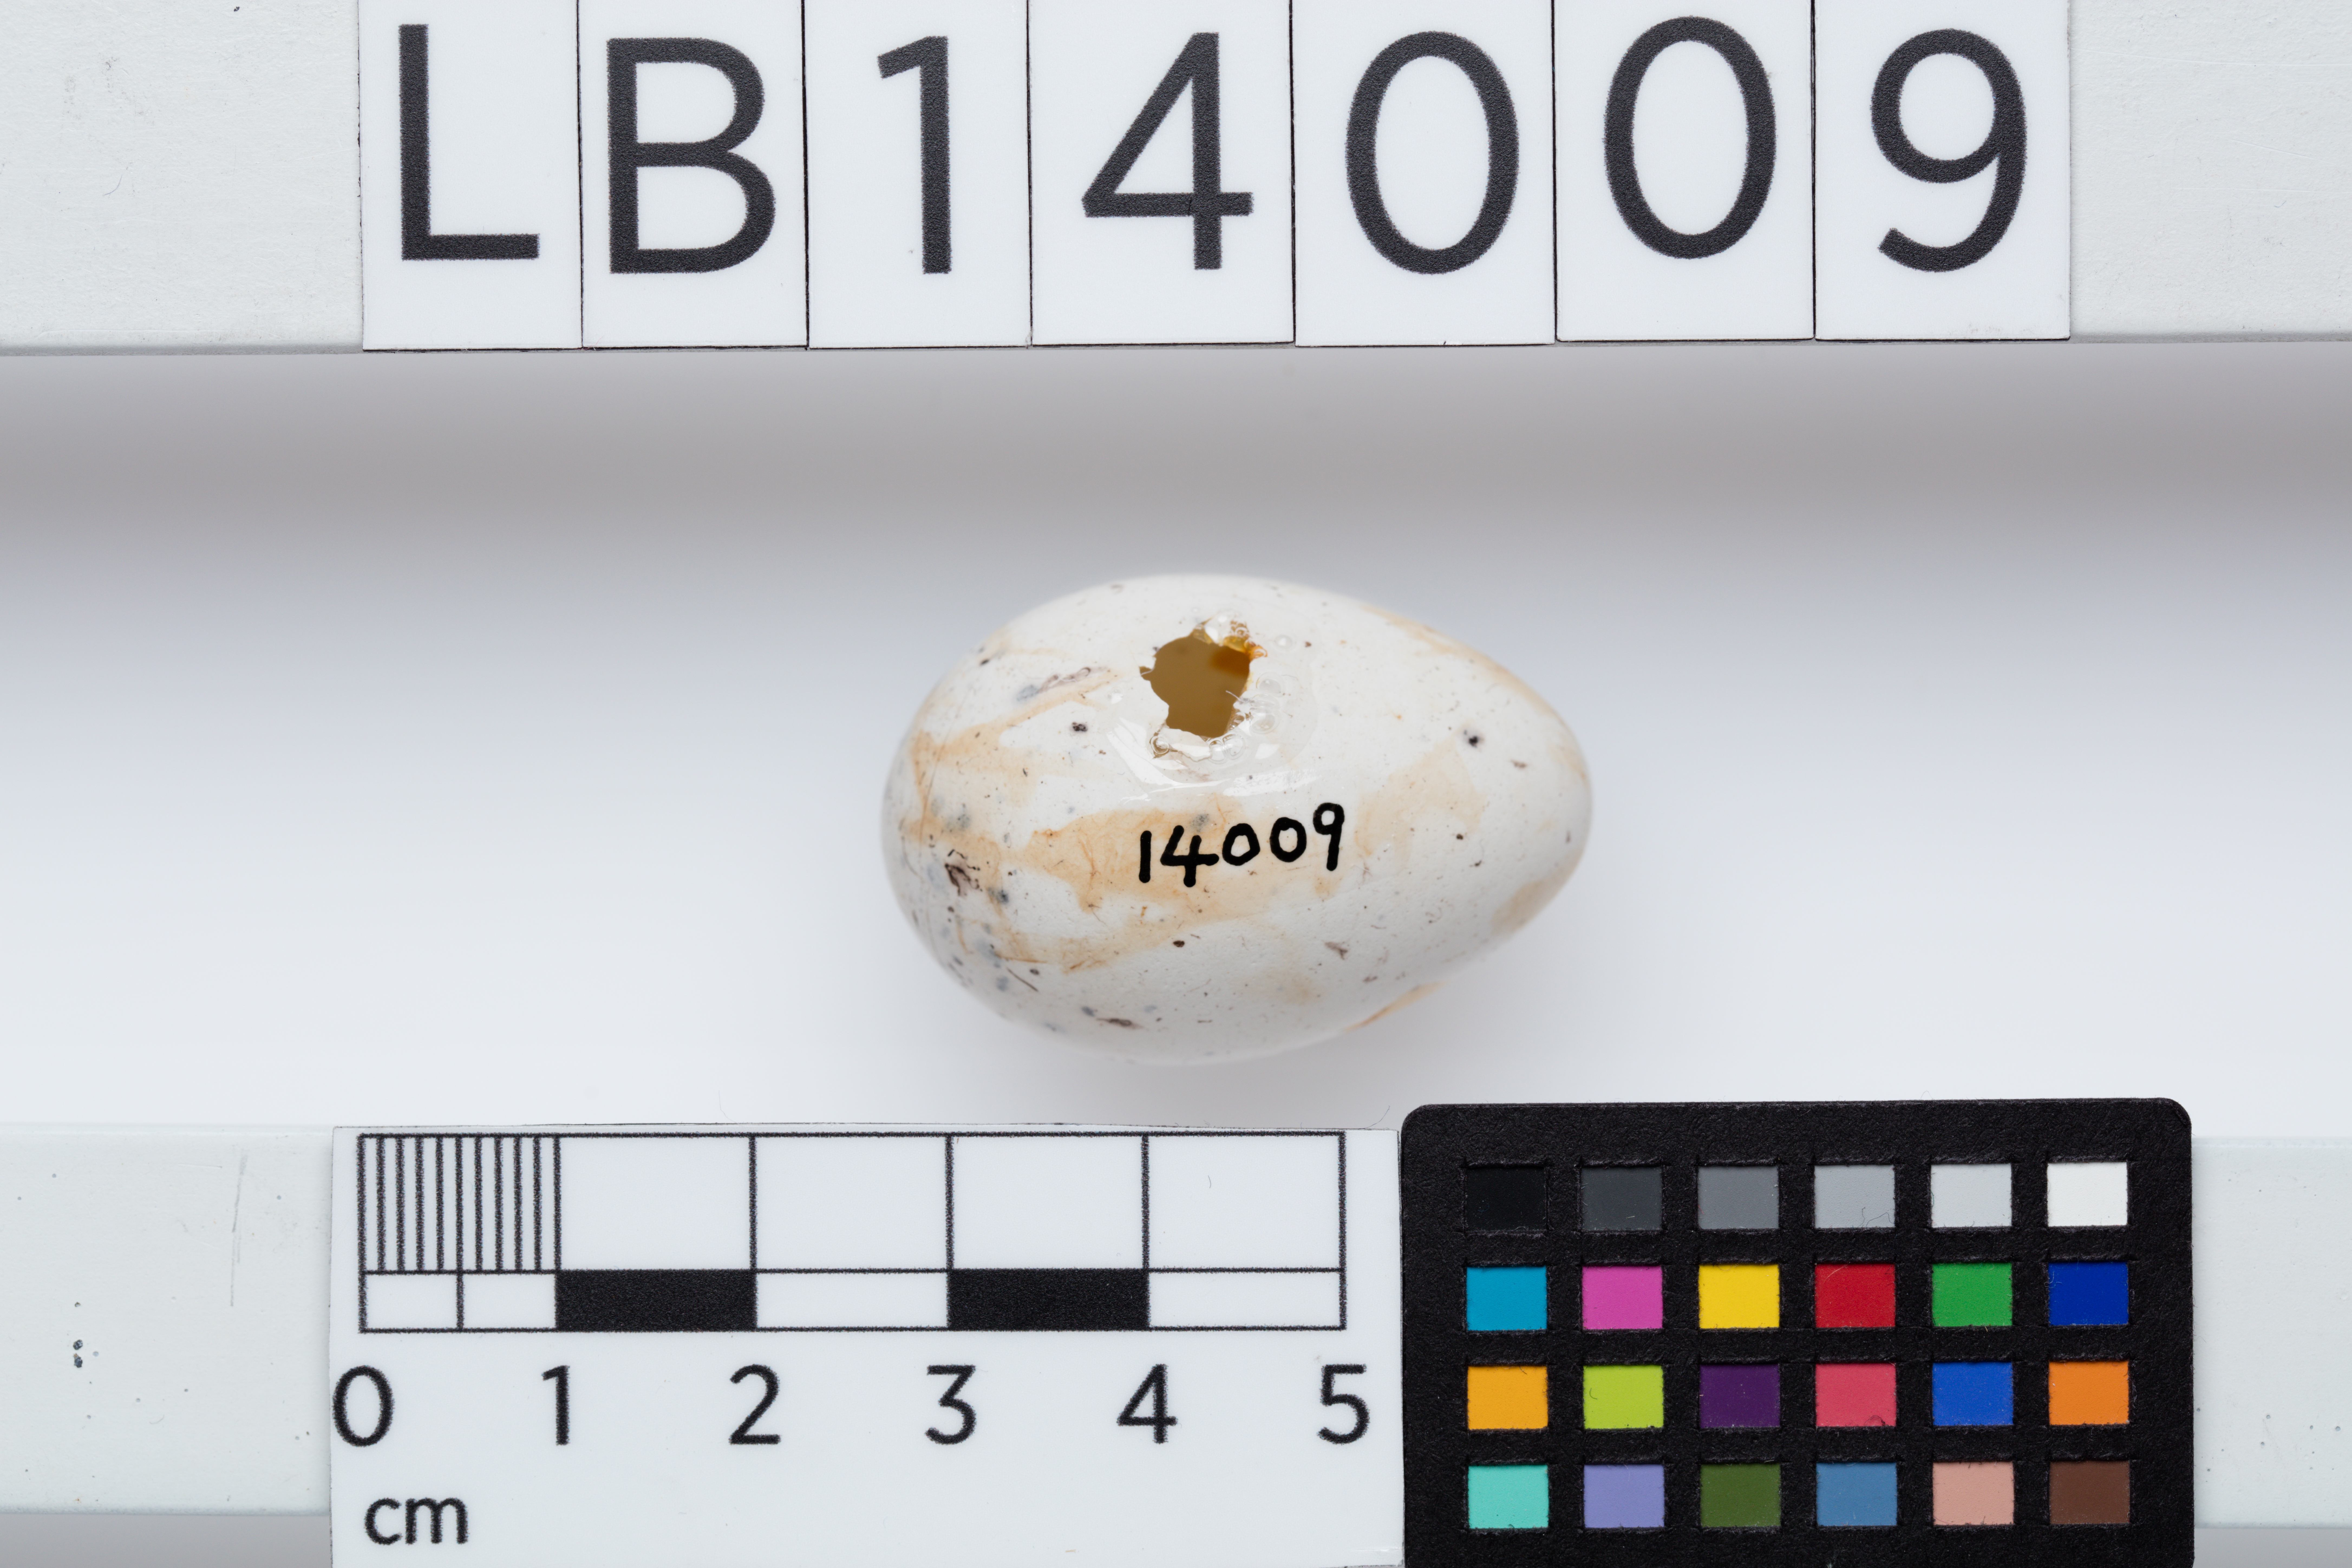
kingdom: Animalia
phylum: Chordata
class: Aves
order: Passeriformes
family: Callaeatidae
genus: Callaeas
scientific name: Callaeas cinereus
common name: South island kokako
